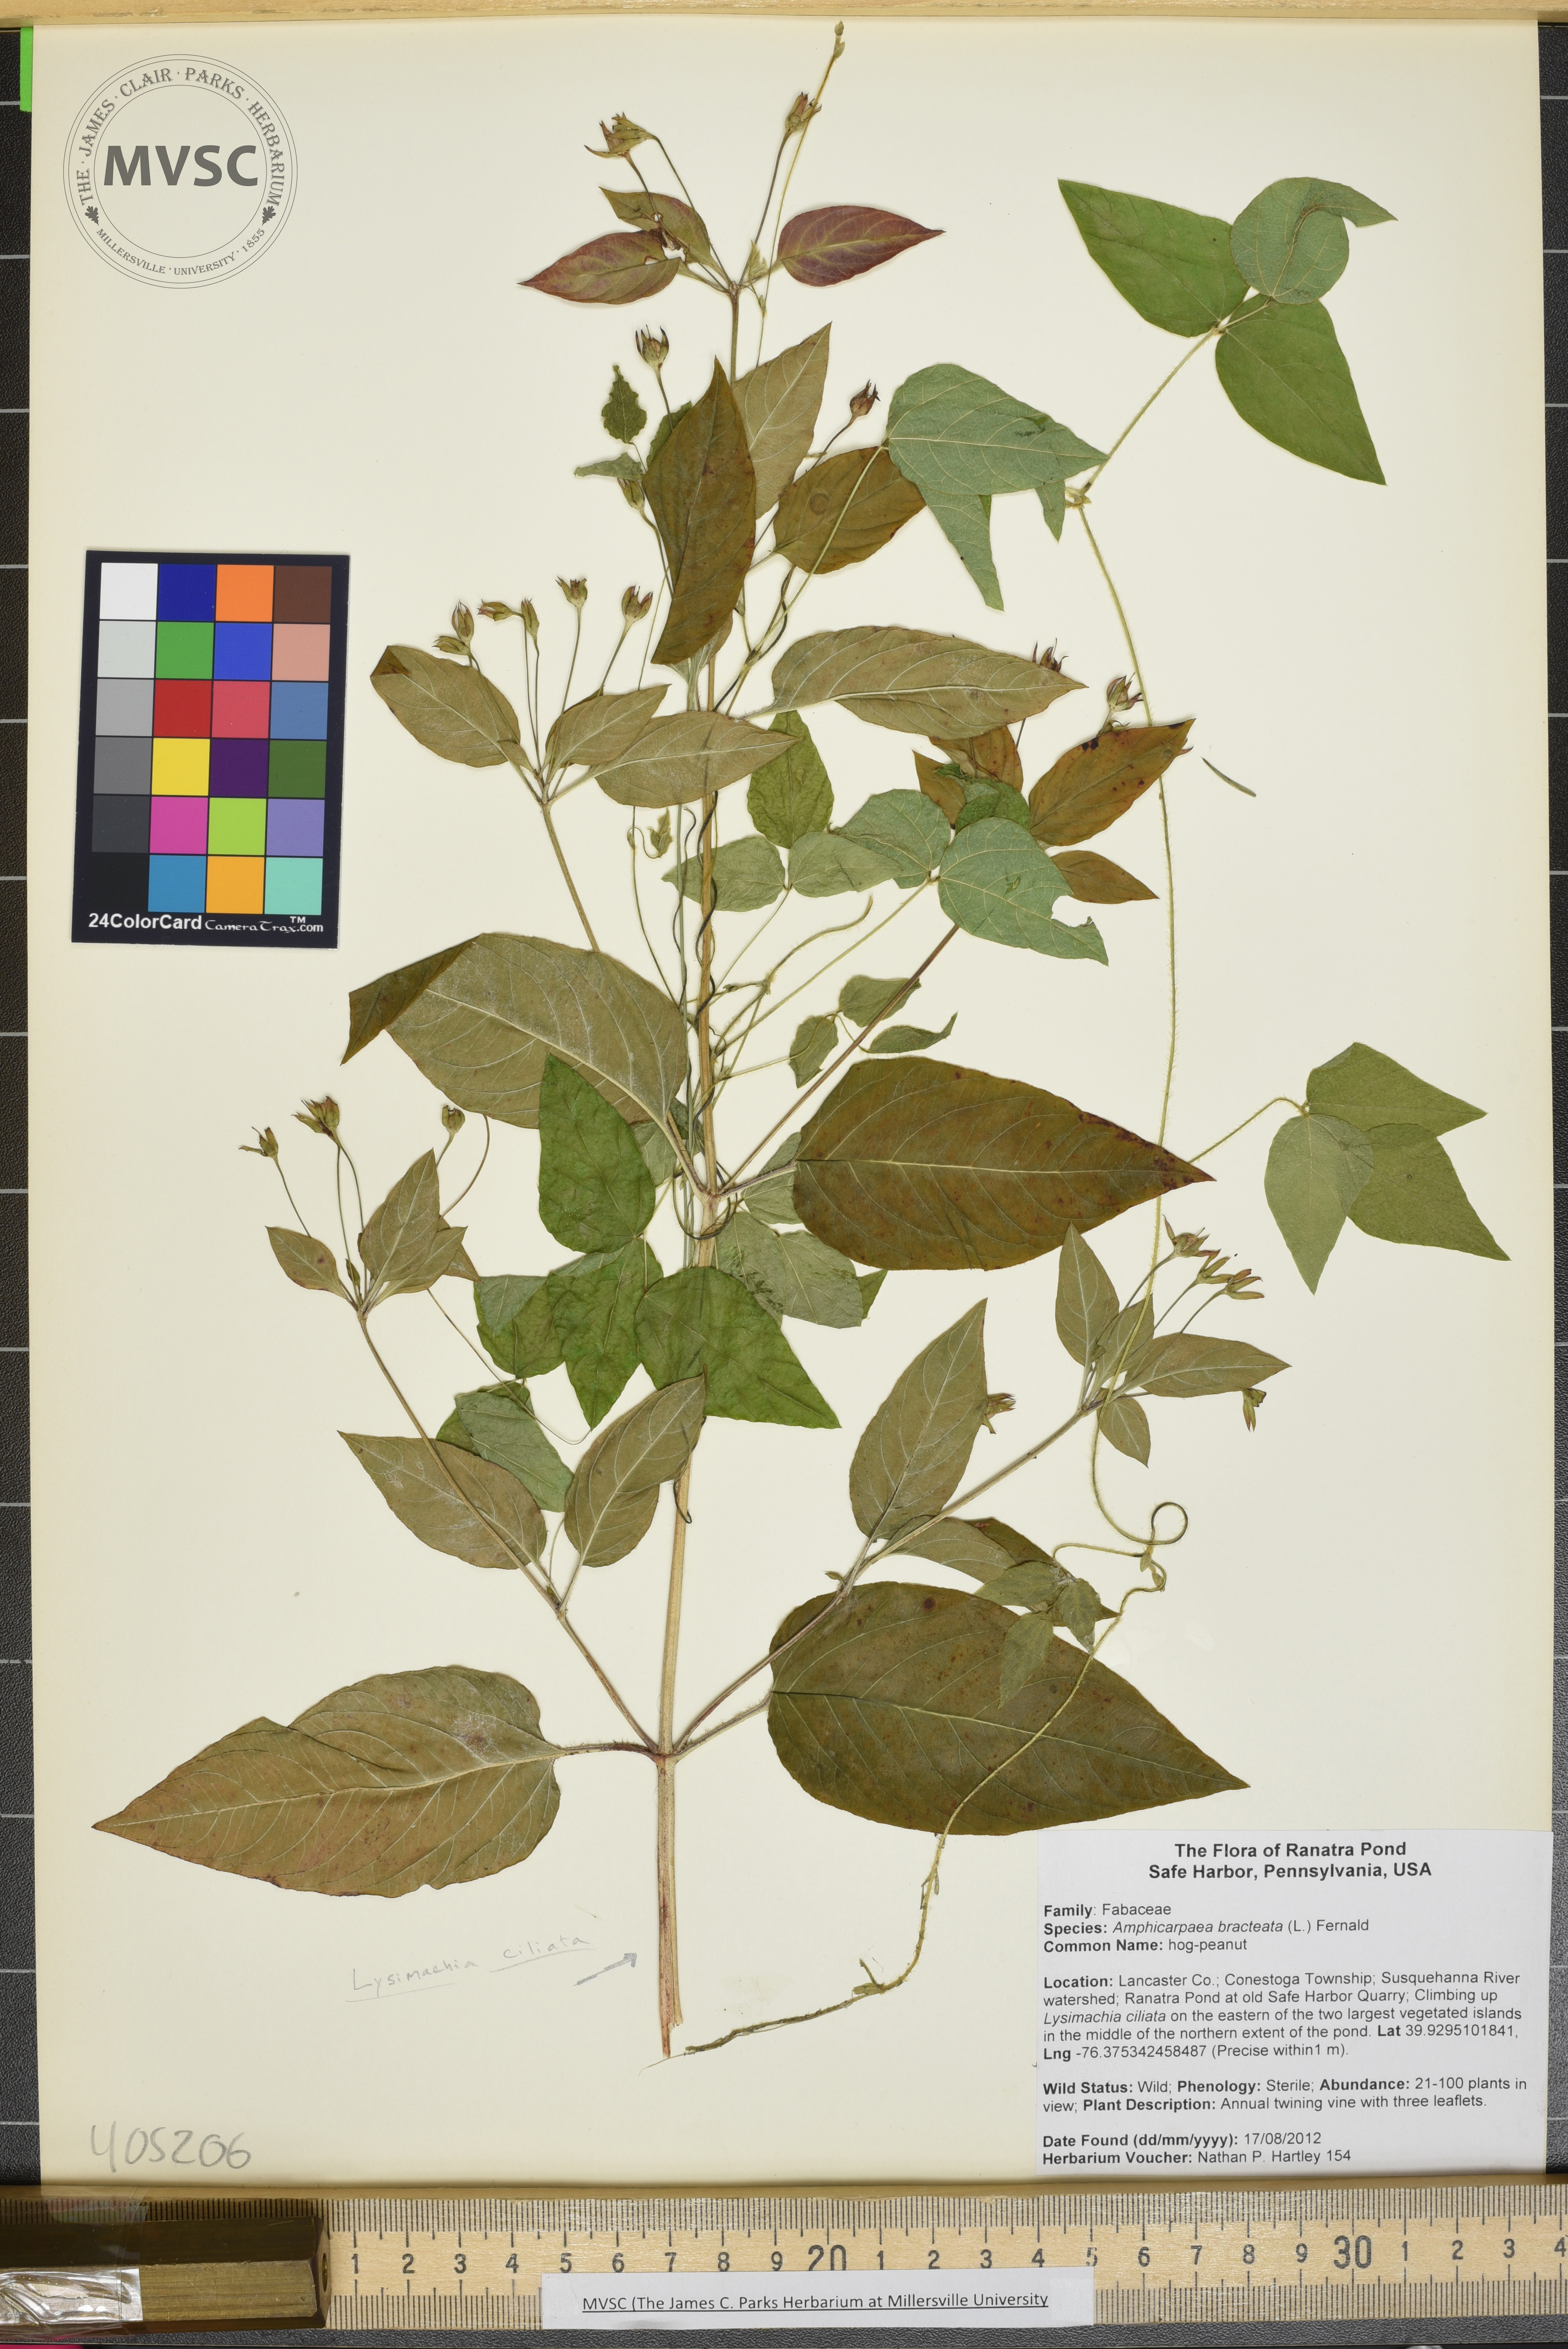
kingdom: Plantae
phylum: Tracheophyta
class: Magnoliopsida
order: Fabales
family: Fabaceae
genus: Amphicarpaea
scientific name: Amphicarpaea bracteata
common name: hog-peanut
